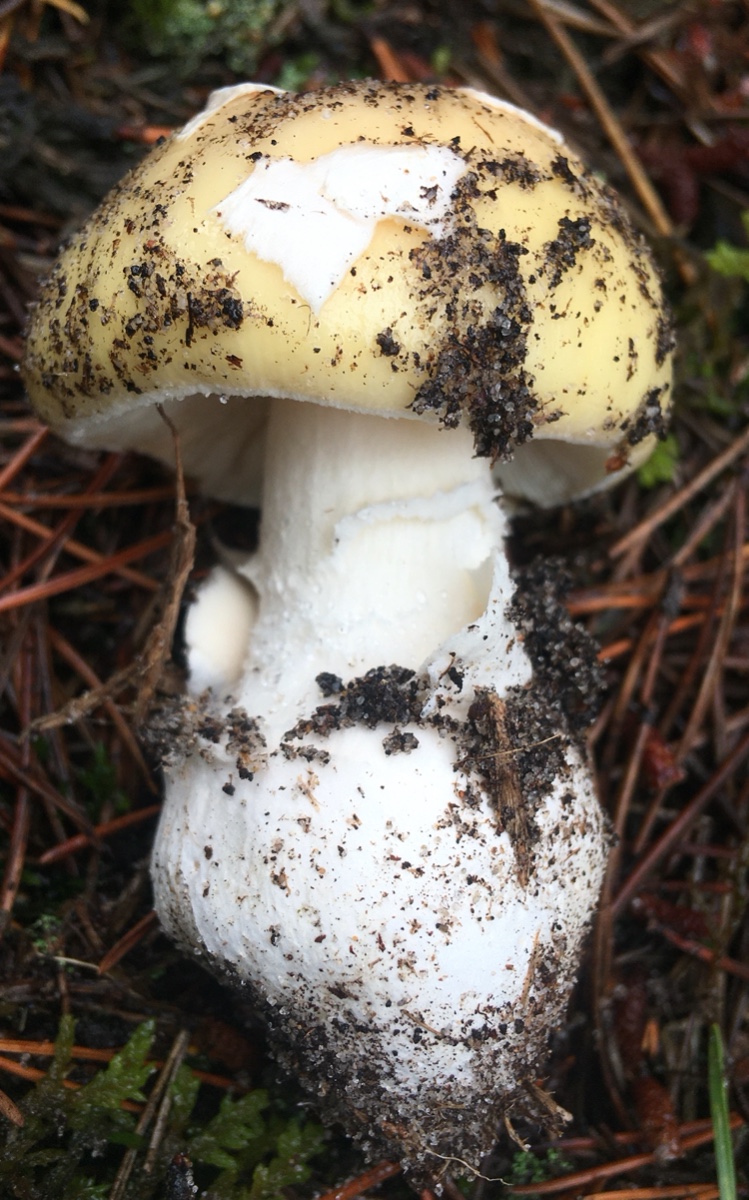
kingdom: Fungi
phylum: Basidiomycota
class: Agaricomycetes
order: Agaricales
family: Amanitaceae
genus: Amanita
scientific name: Amanita gemmata
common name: okkergul fluesvamp
